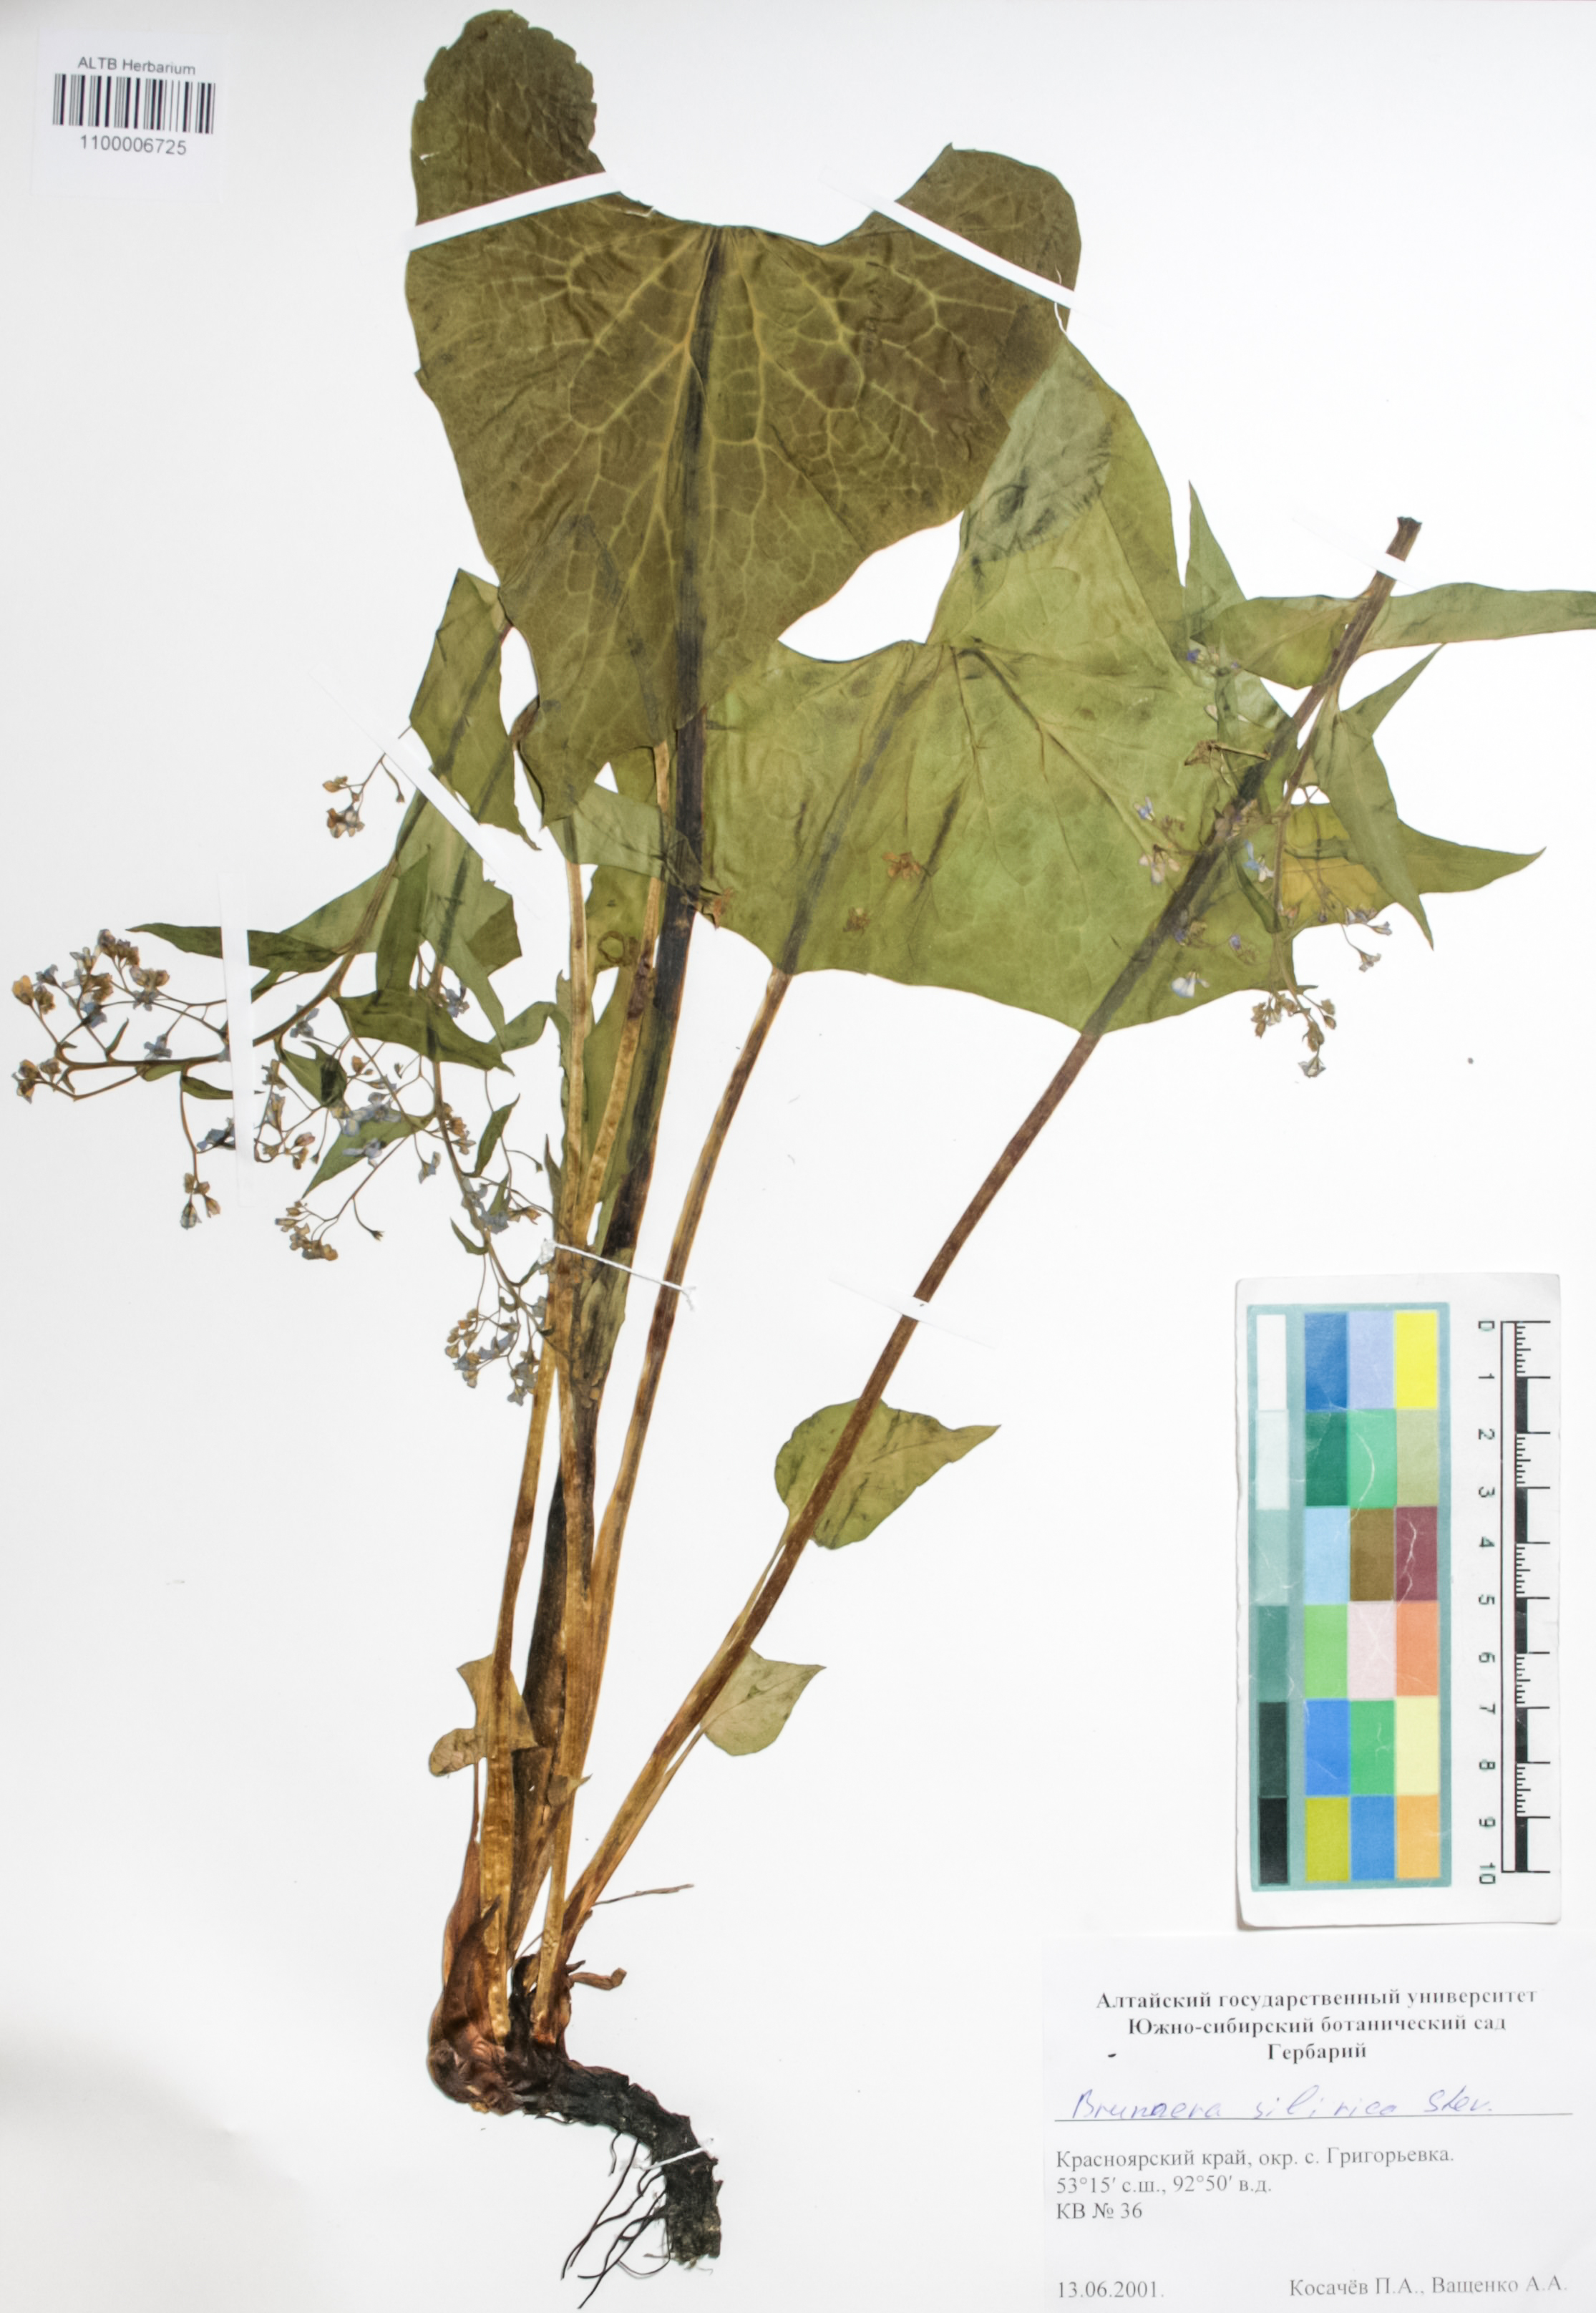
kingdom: Plantae
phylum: Tracheophyta
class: Magnoliopsida
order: Boraginales
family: Boraginaceae
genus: Brunnera
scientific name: Brunnera sibirica
